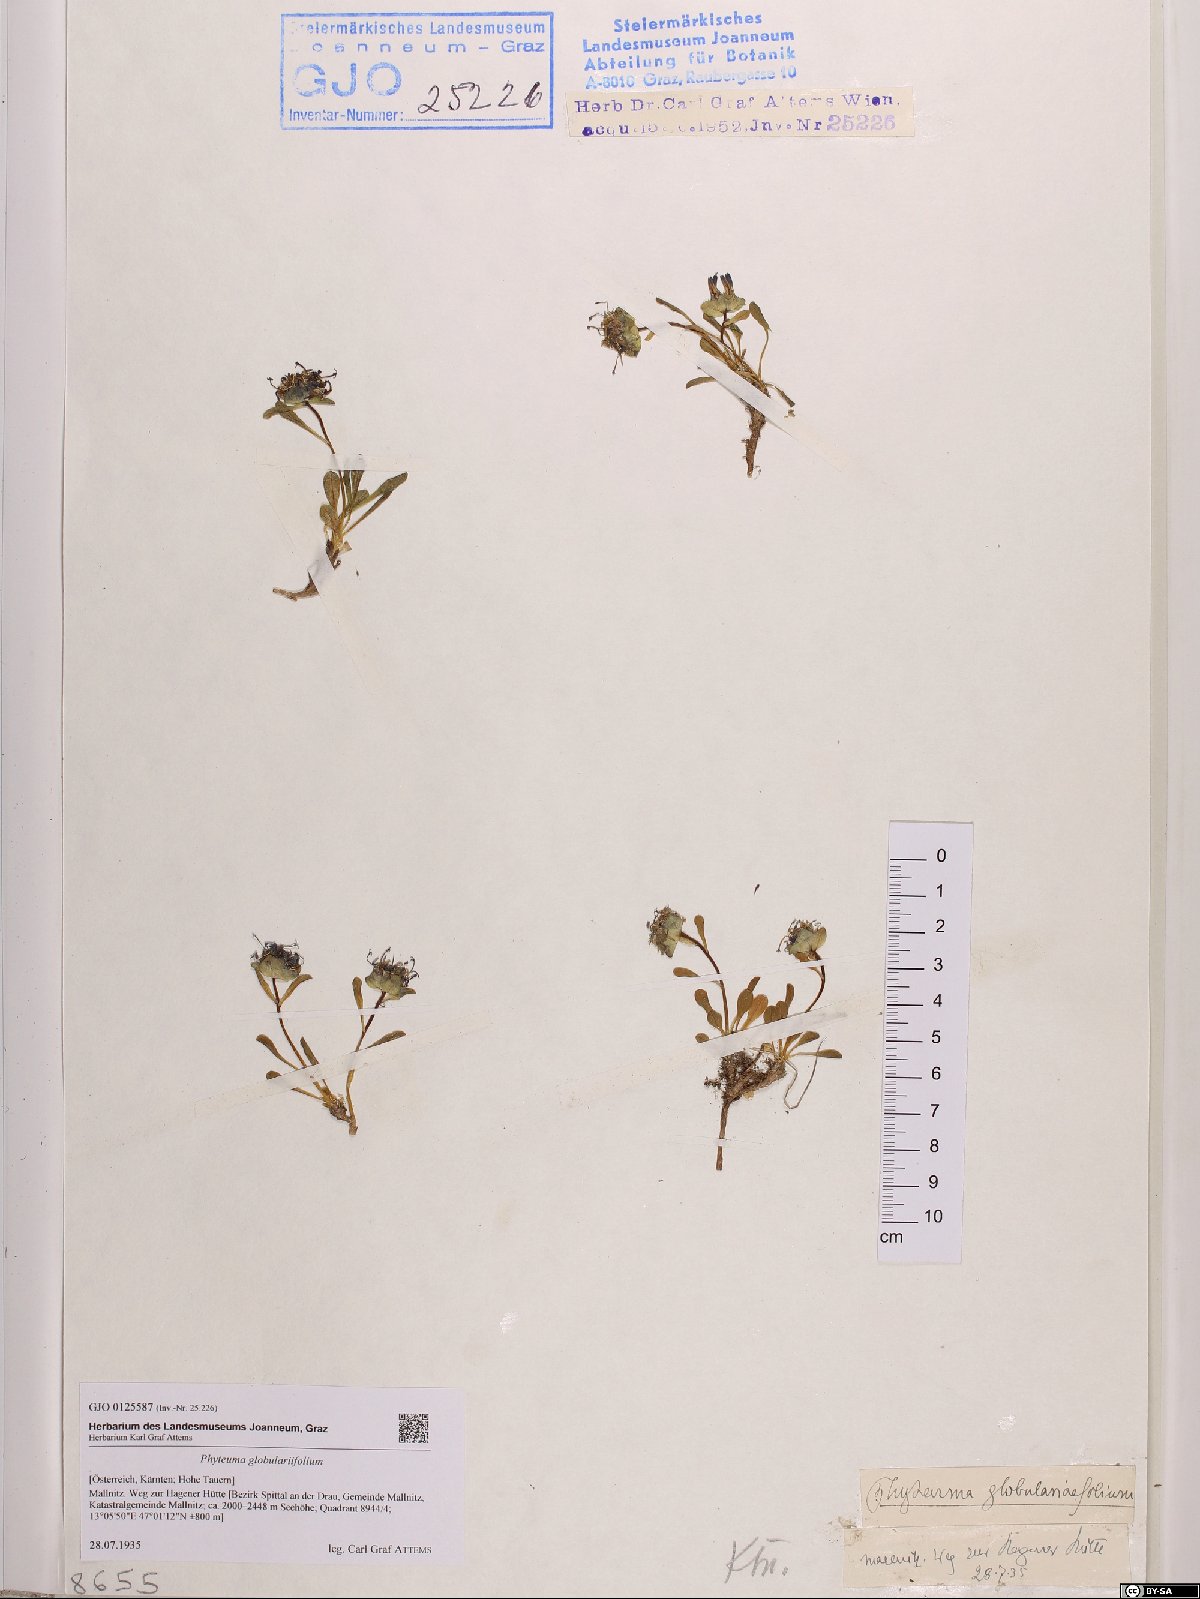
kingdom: Plantae
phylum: Tracheophyta
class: Magnoliopsida
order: Asterales
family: Campanulaceae
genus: Phyteuma
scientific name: Phyteuma globulariifolium
